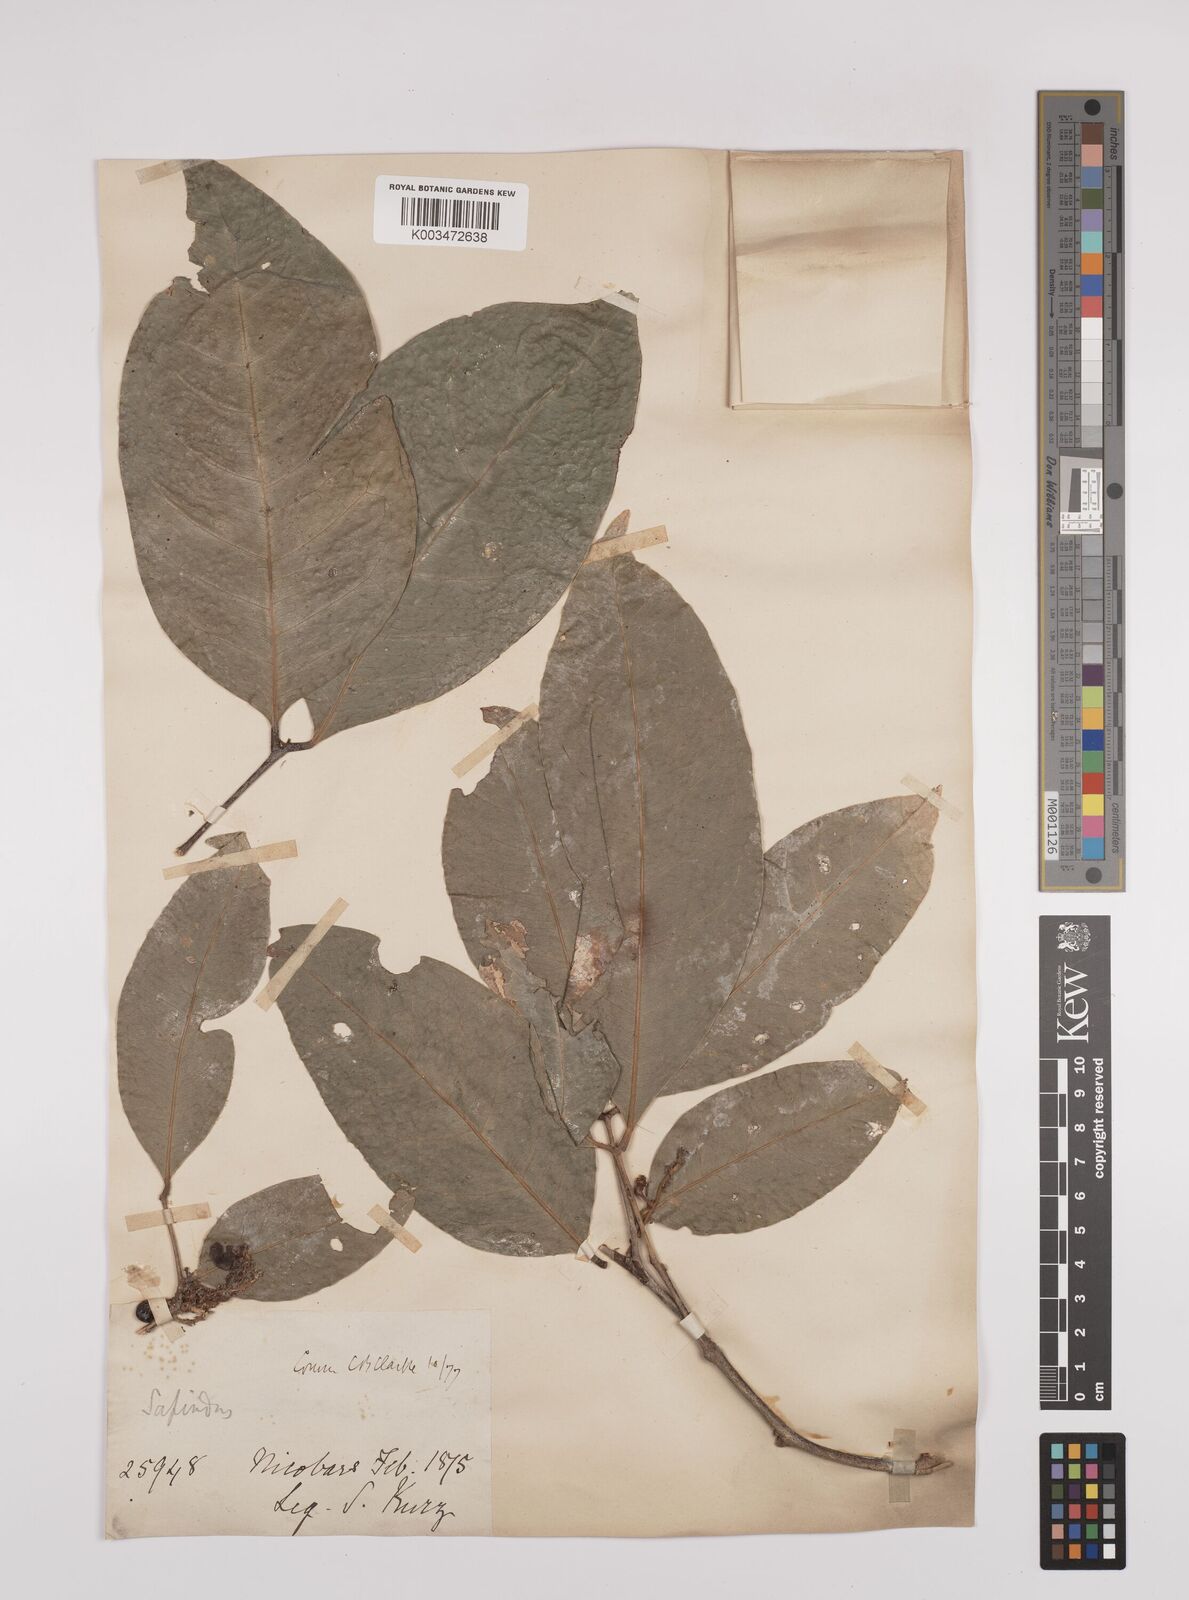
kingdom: Plantae
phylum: Tracheophyta
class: Magnoliopsida
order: Sapindales
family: Sapindaceae
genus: Lepisanthes
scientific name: Lepisanthes senegalensis
